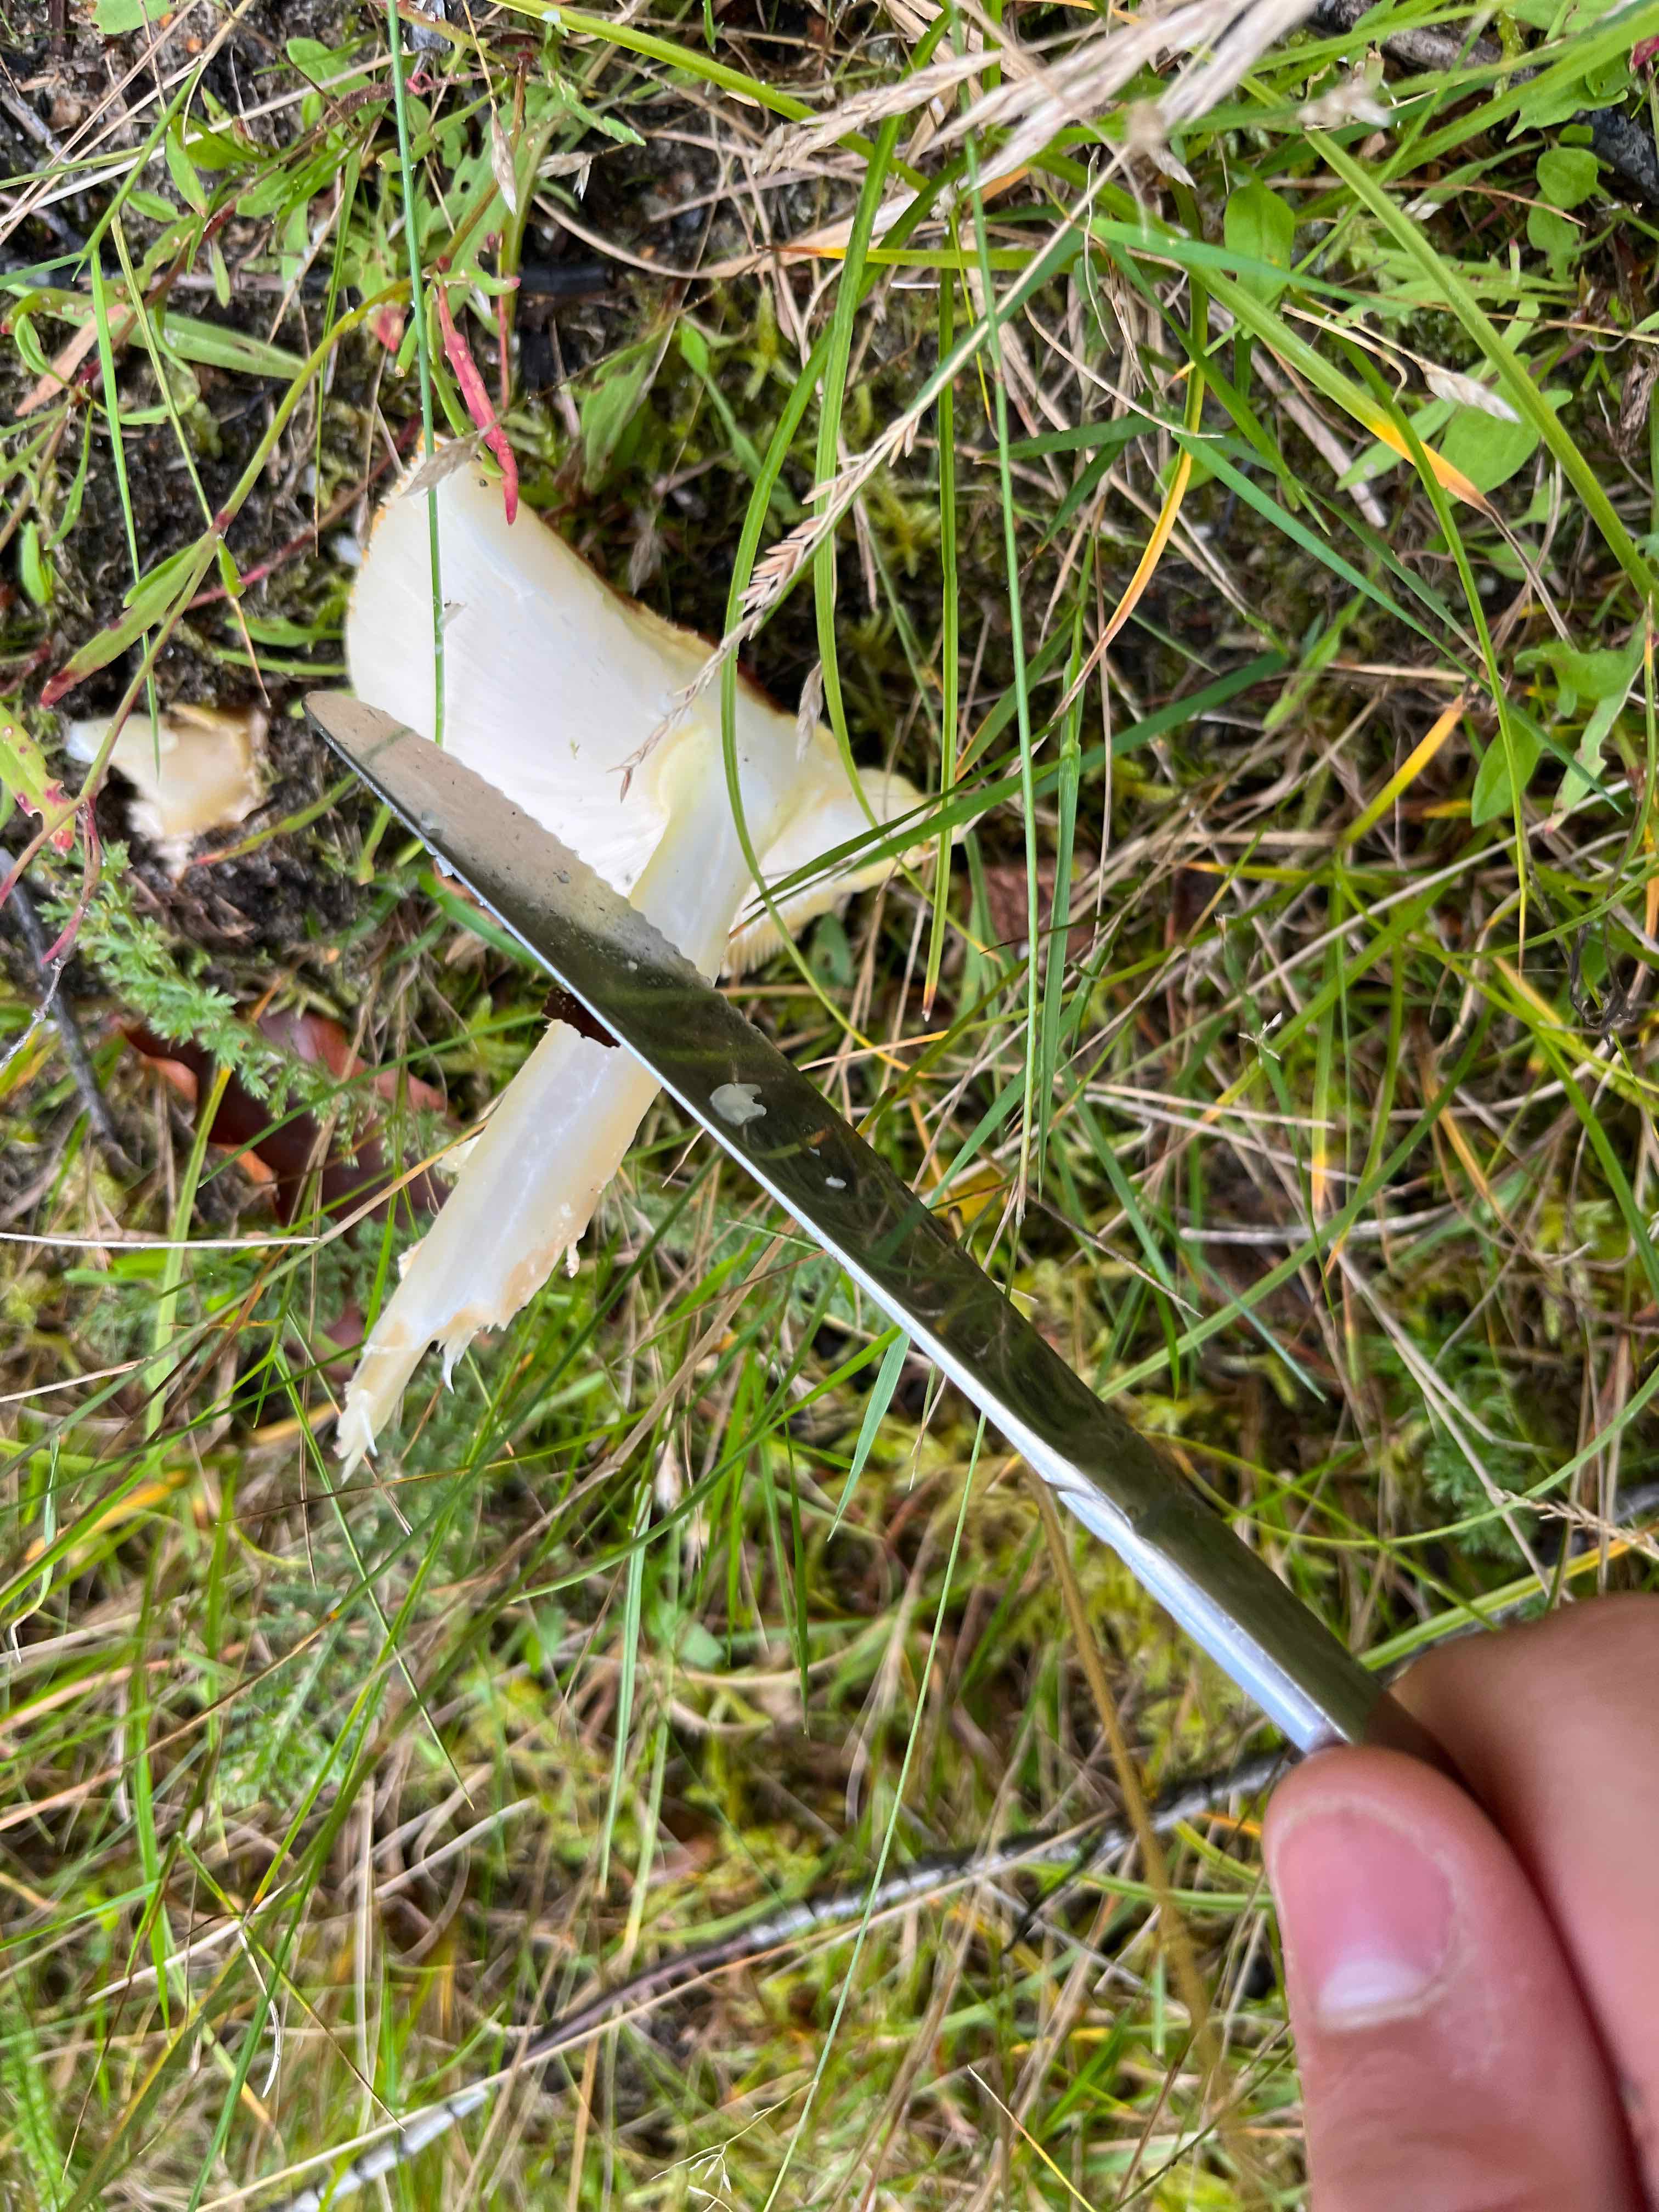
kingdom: Fungi
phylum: Basidiomycota
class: Agaricomycetes
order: Agaricales
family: Amanitaceae
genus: Amanita
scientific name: Amanita muscaria
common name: rød fluesvamp
